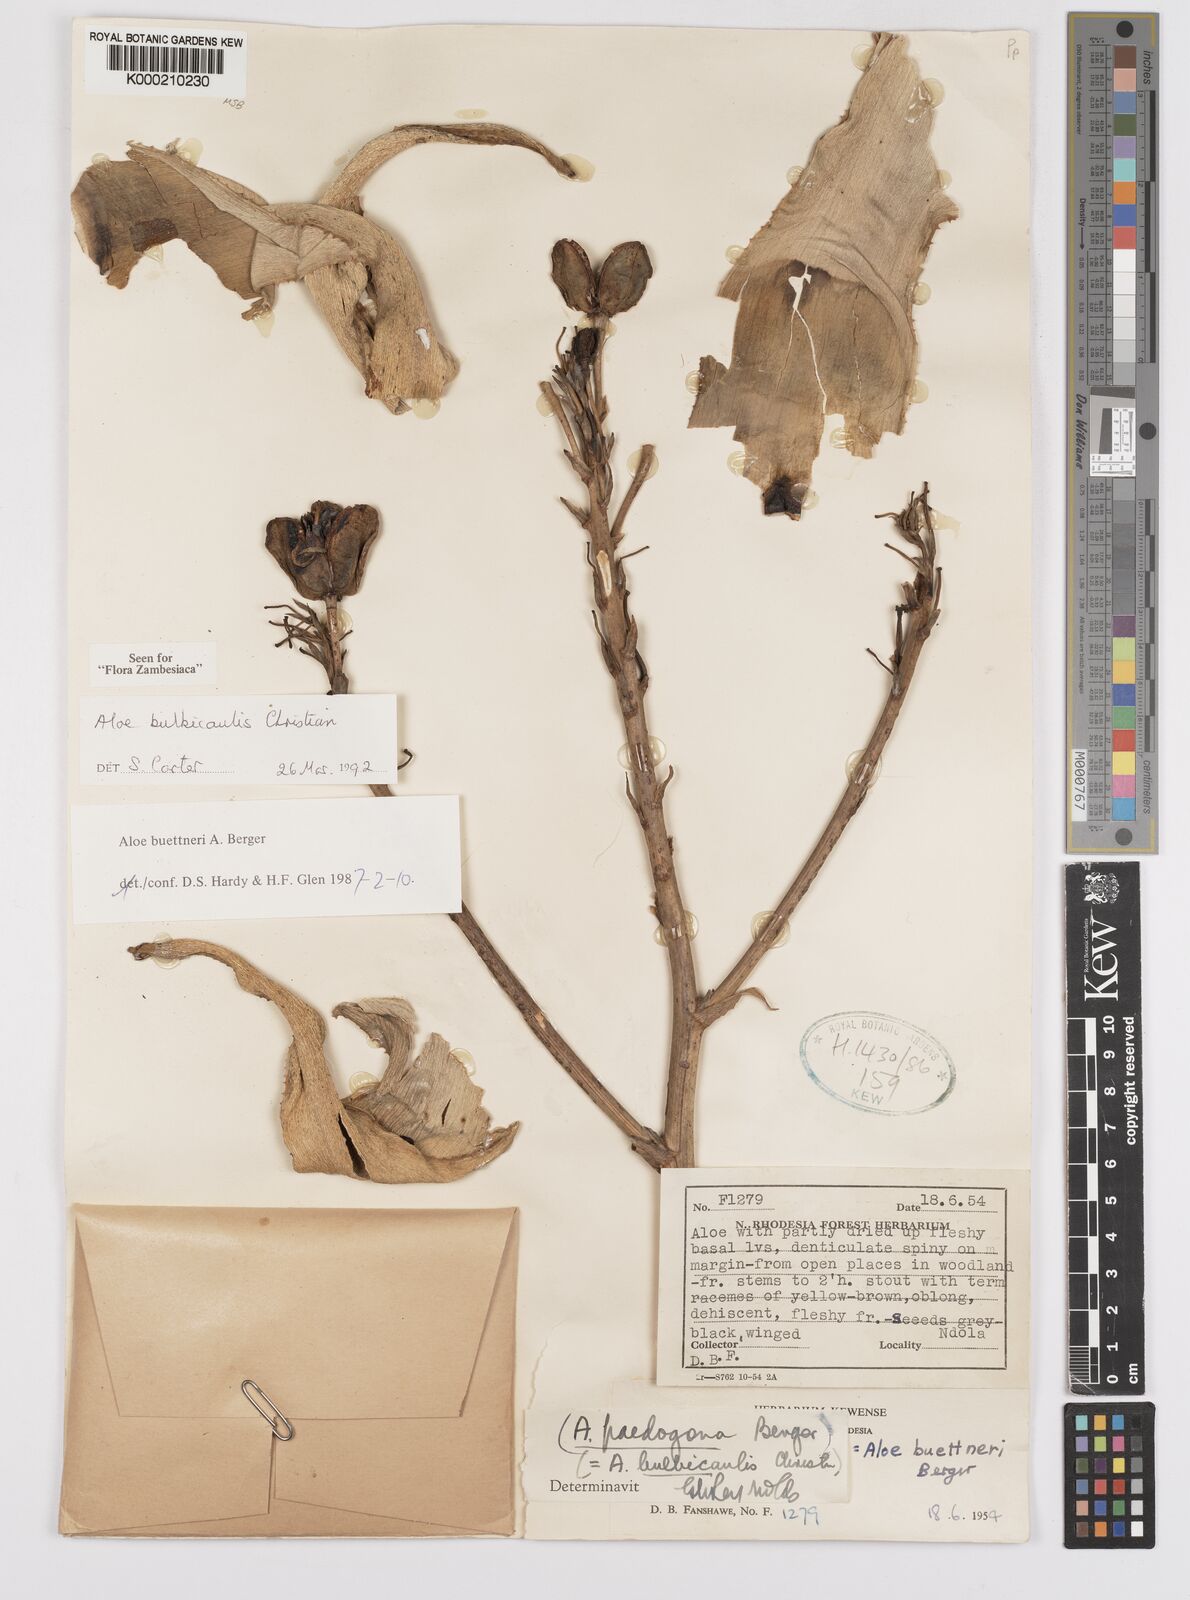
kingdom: Plantae
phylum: Tracheophyta
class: Liliopsida
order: Asparagales
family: Asphodelaceae
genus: Aloe
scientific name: Aloe bulbicaulis
